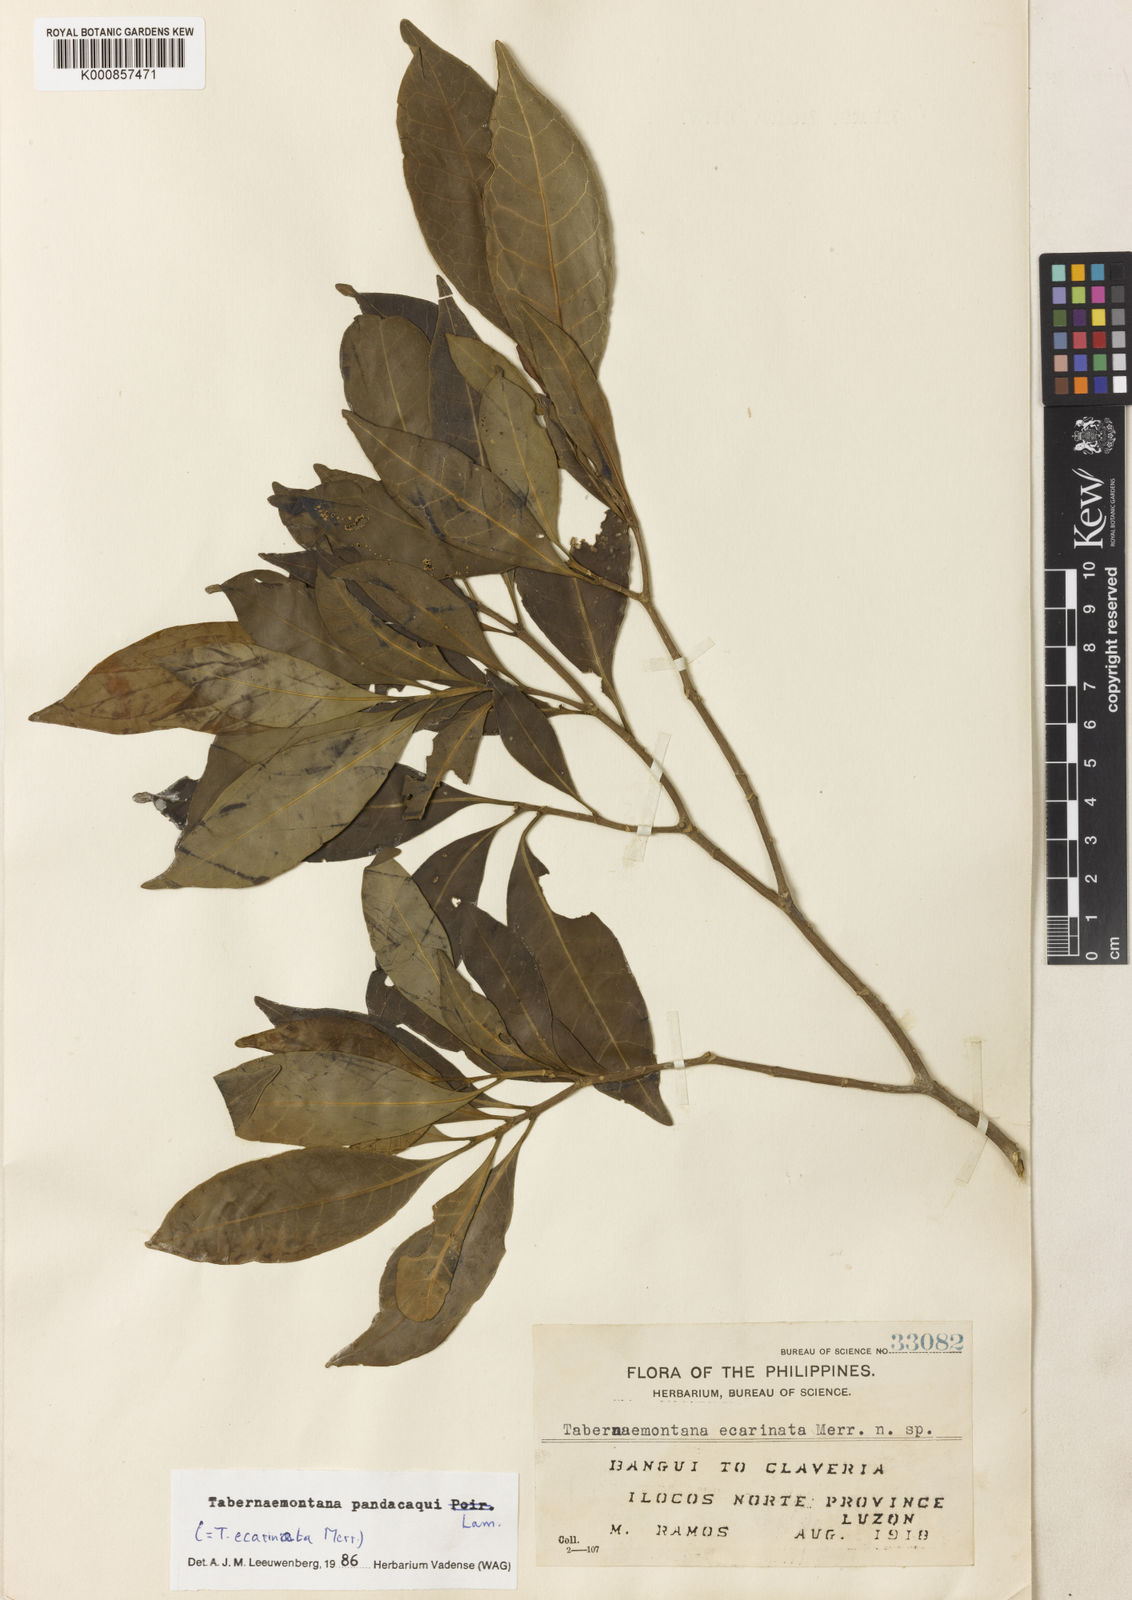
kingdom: Plantae
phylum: Tracheophyta
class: Magnoliopsida
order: Gentianales
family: Apocynaceae
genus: Tabernaemontana
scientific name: Tabernaemontana
